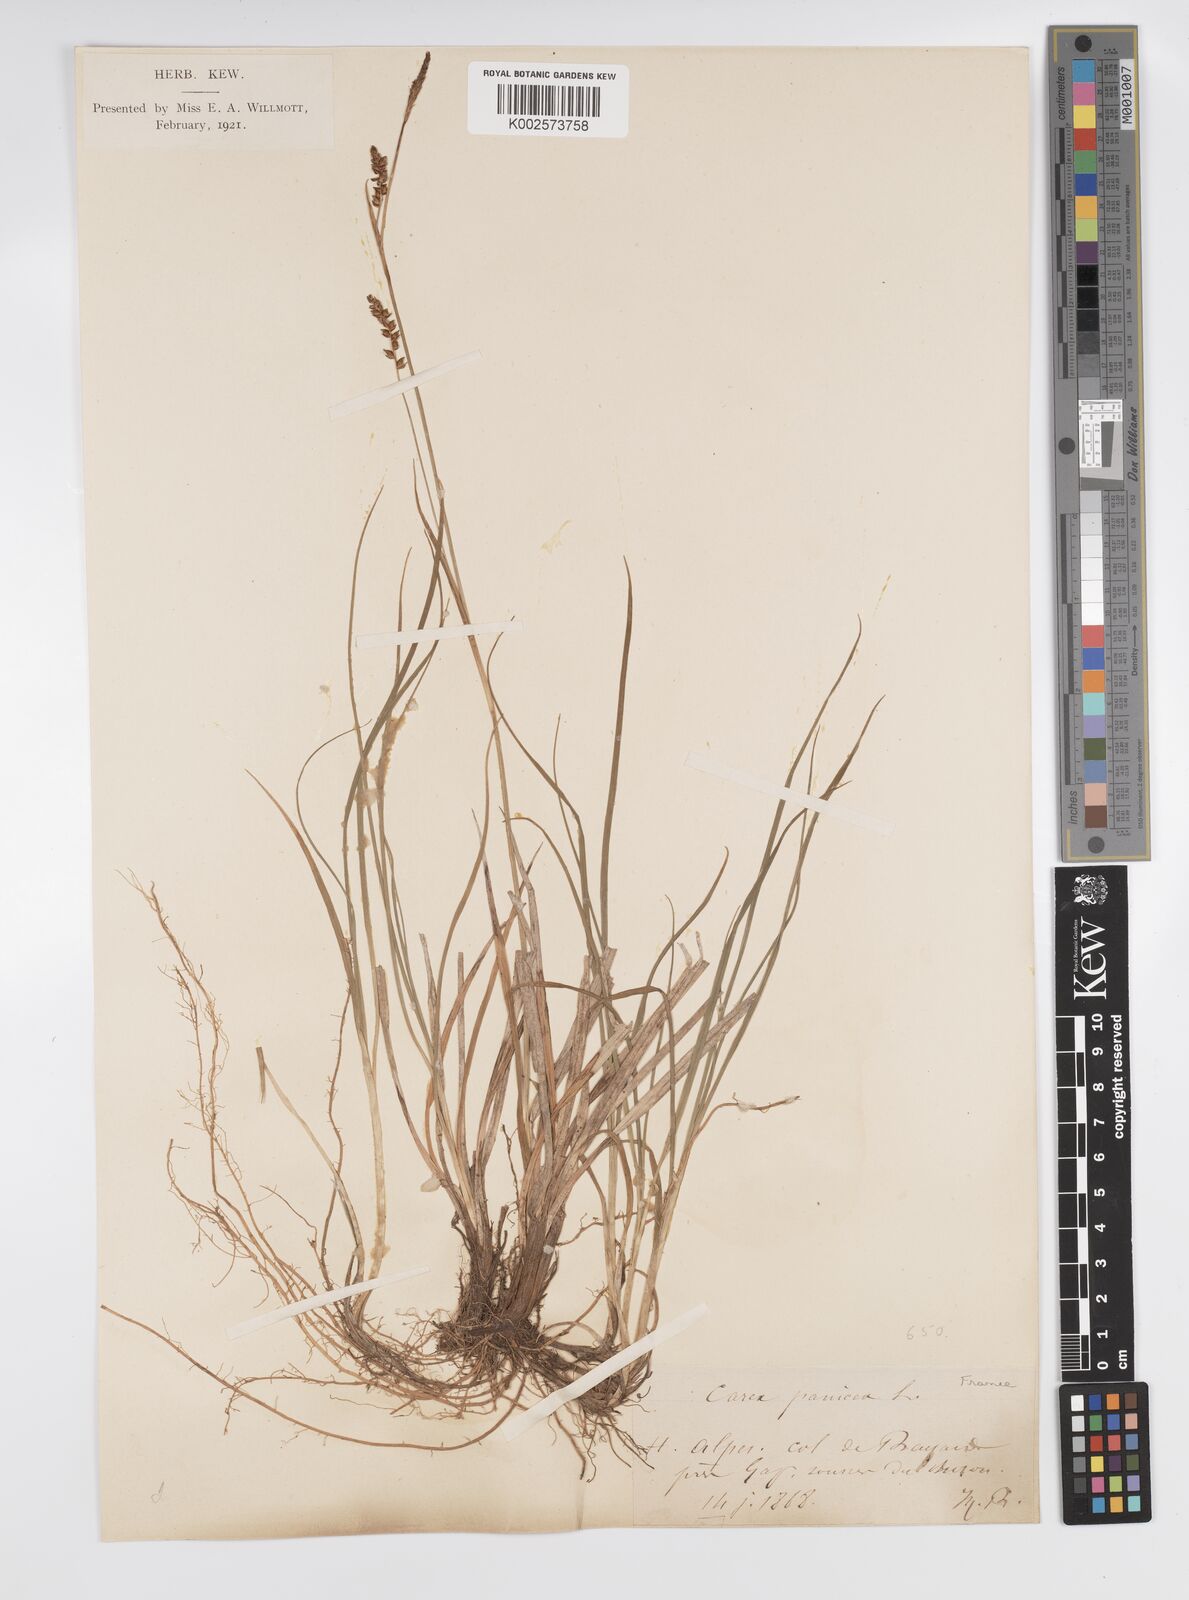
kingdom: Plantae
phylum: Tracheophyta
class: Liliopsida
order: Poales
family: Cyperaceae
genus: Carex
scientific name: Carex panicea
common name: Carnation sedge
